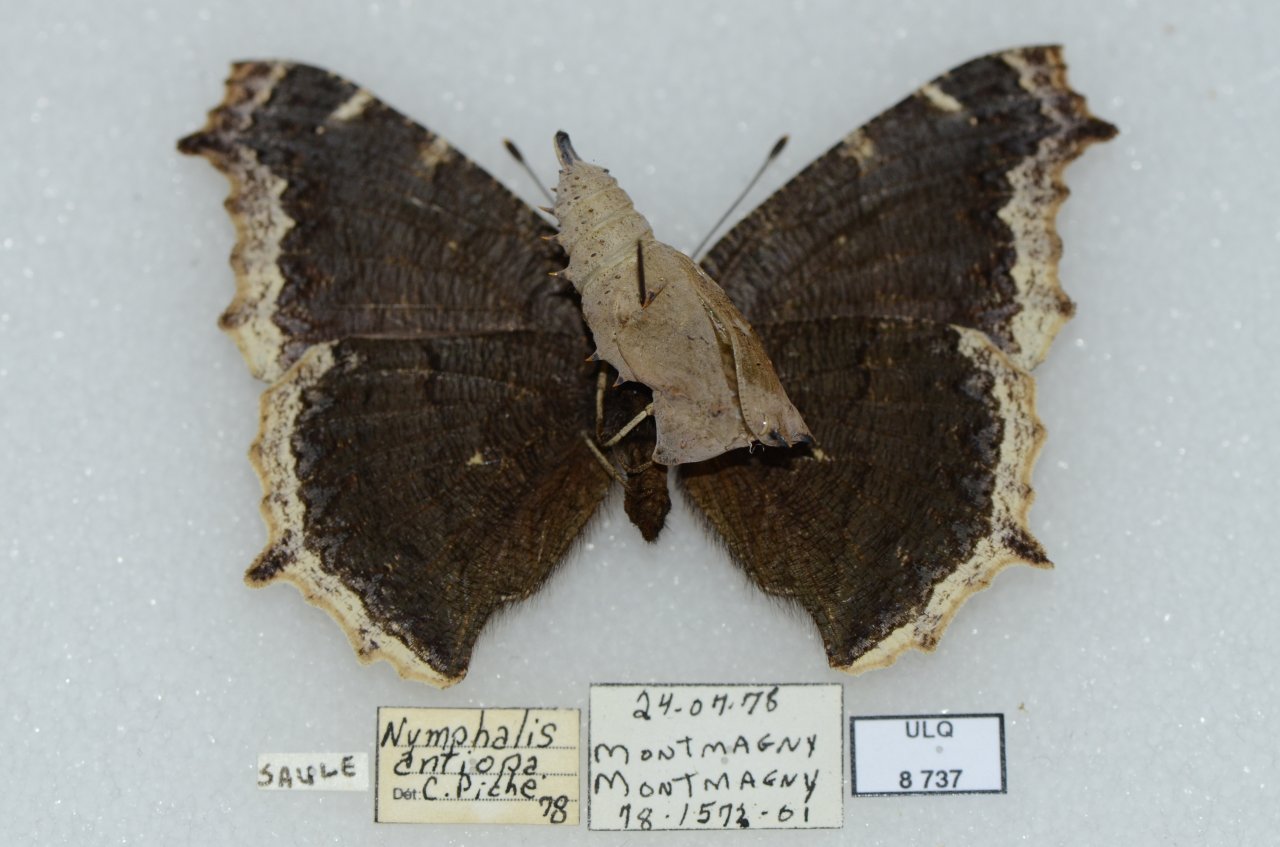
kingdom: Animalia
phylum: Arthropoda
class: Insecta
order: Lepidoptera
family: Nymphalidae
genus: Nymphalis
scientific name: Nymphalis antiopa
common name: Mourning Cloak
